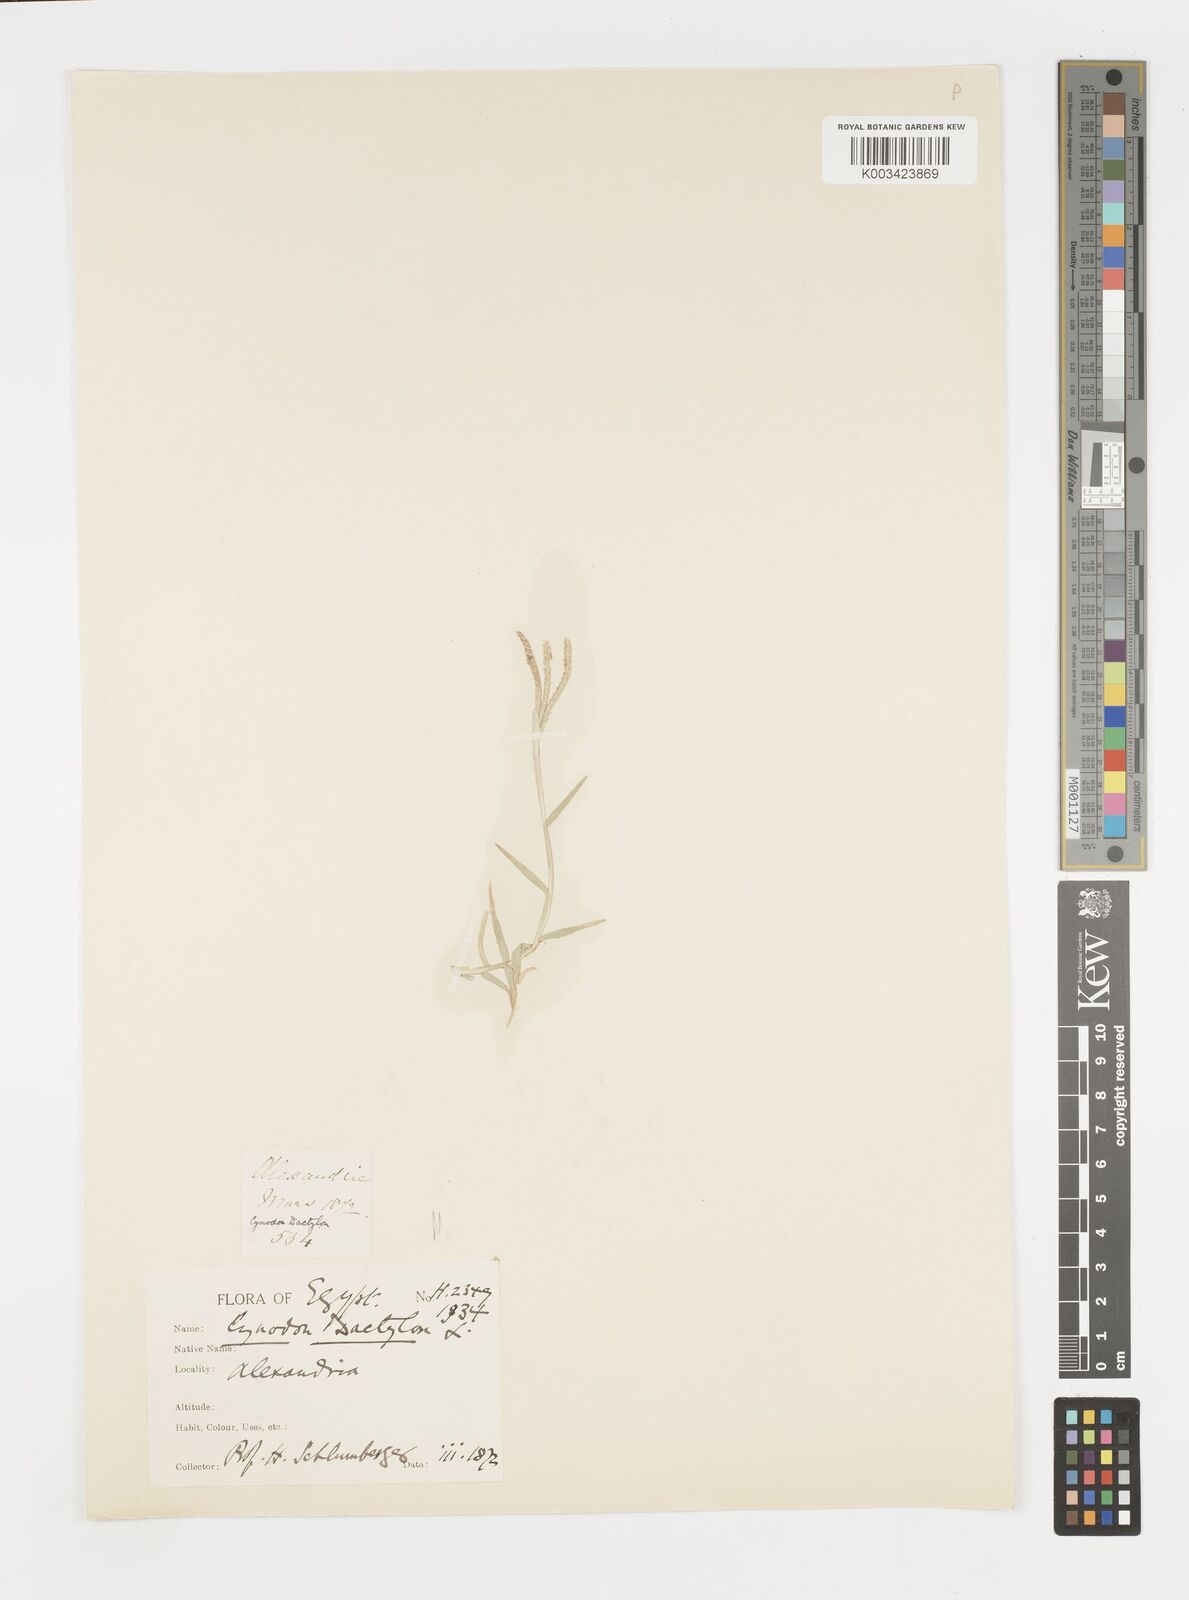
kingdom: Plantae
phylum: Tracheophyta
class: Liliopsida
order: Poales
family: Poaceae
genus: Cynodon
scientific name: Cynodon dactylon
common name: Bermuda grass
